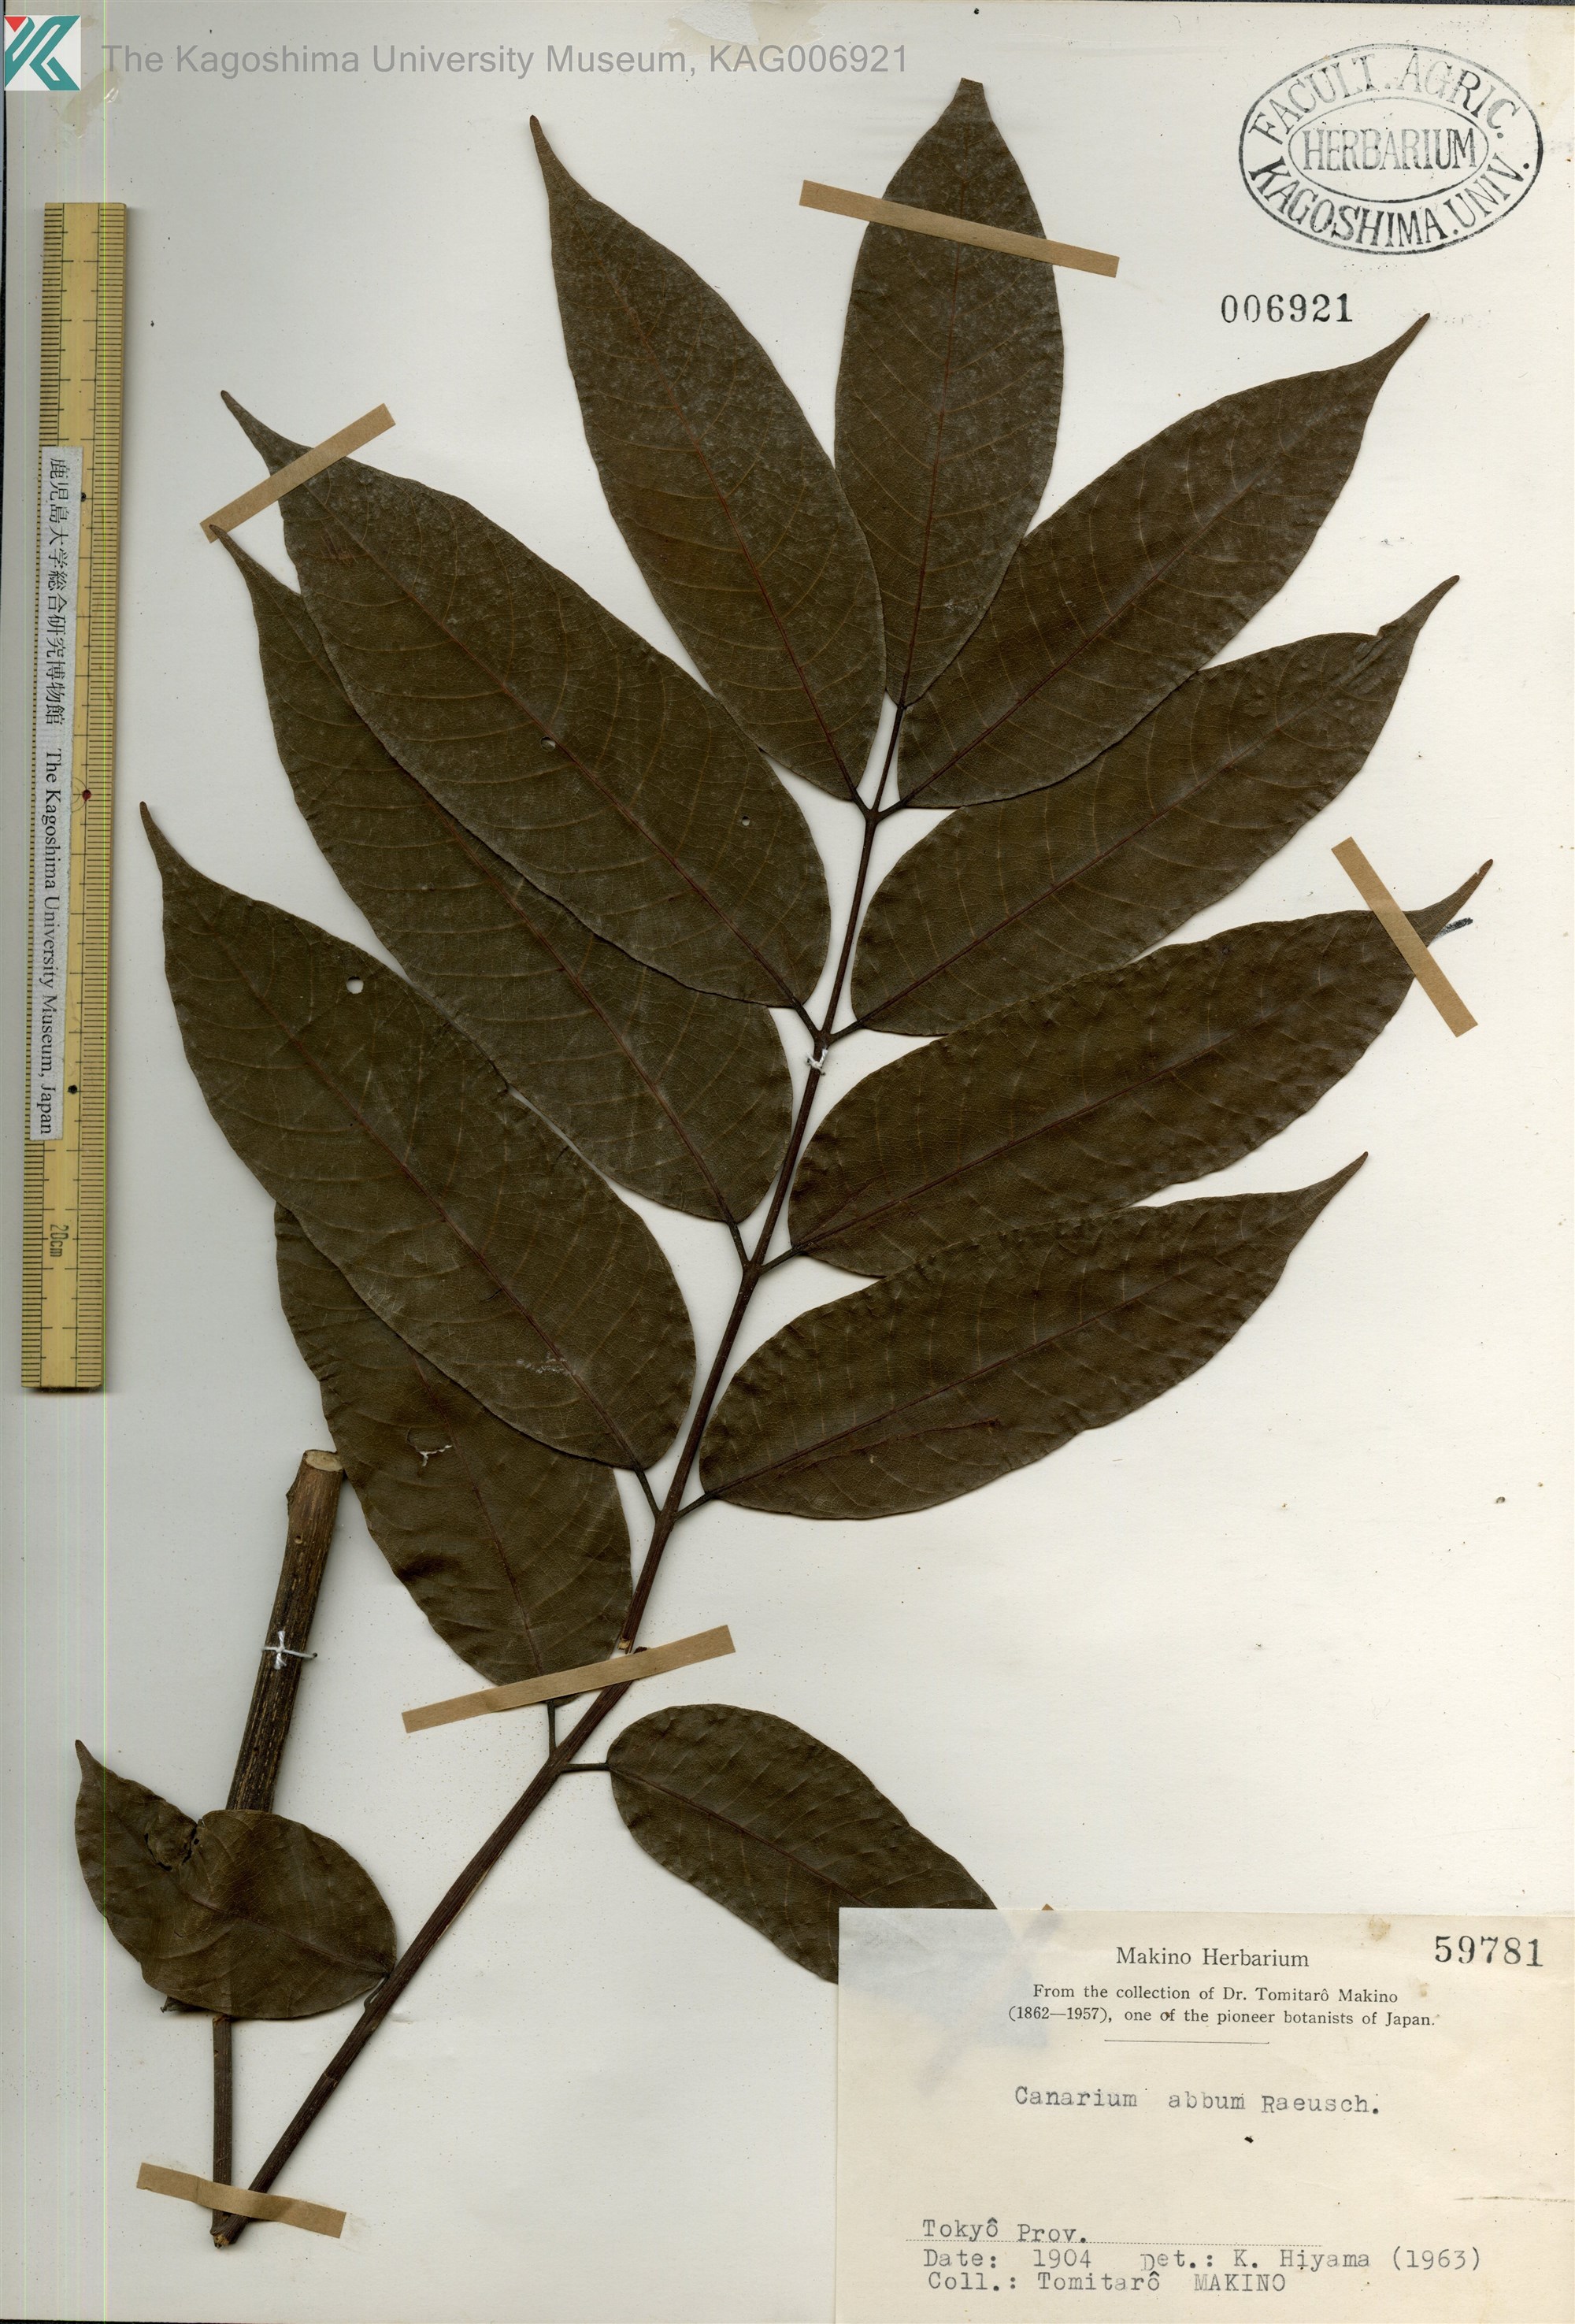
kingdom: Plantae
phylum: Tracheophyta
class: Magnoliopsida
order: Sapindales
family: Burseraceae
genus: Canarium
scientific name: Canarium album
